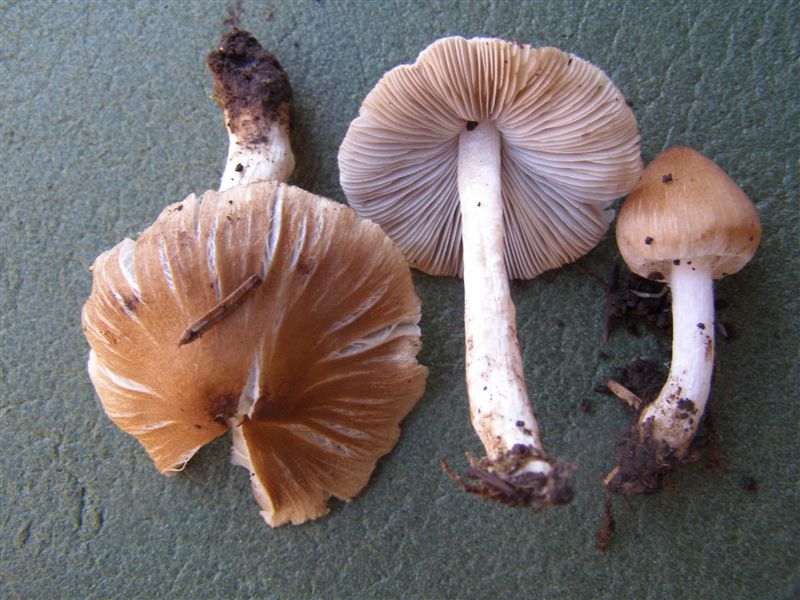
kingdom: Fungi
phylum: Basidiomycota
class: Agaricomycetes
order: Agaricales
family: Inocybaceae
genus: Inocybe
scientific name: Inocybe
